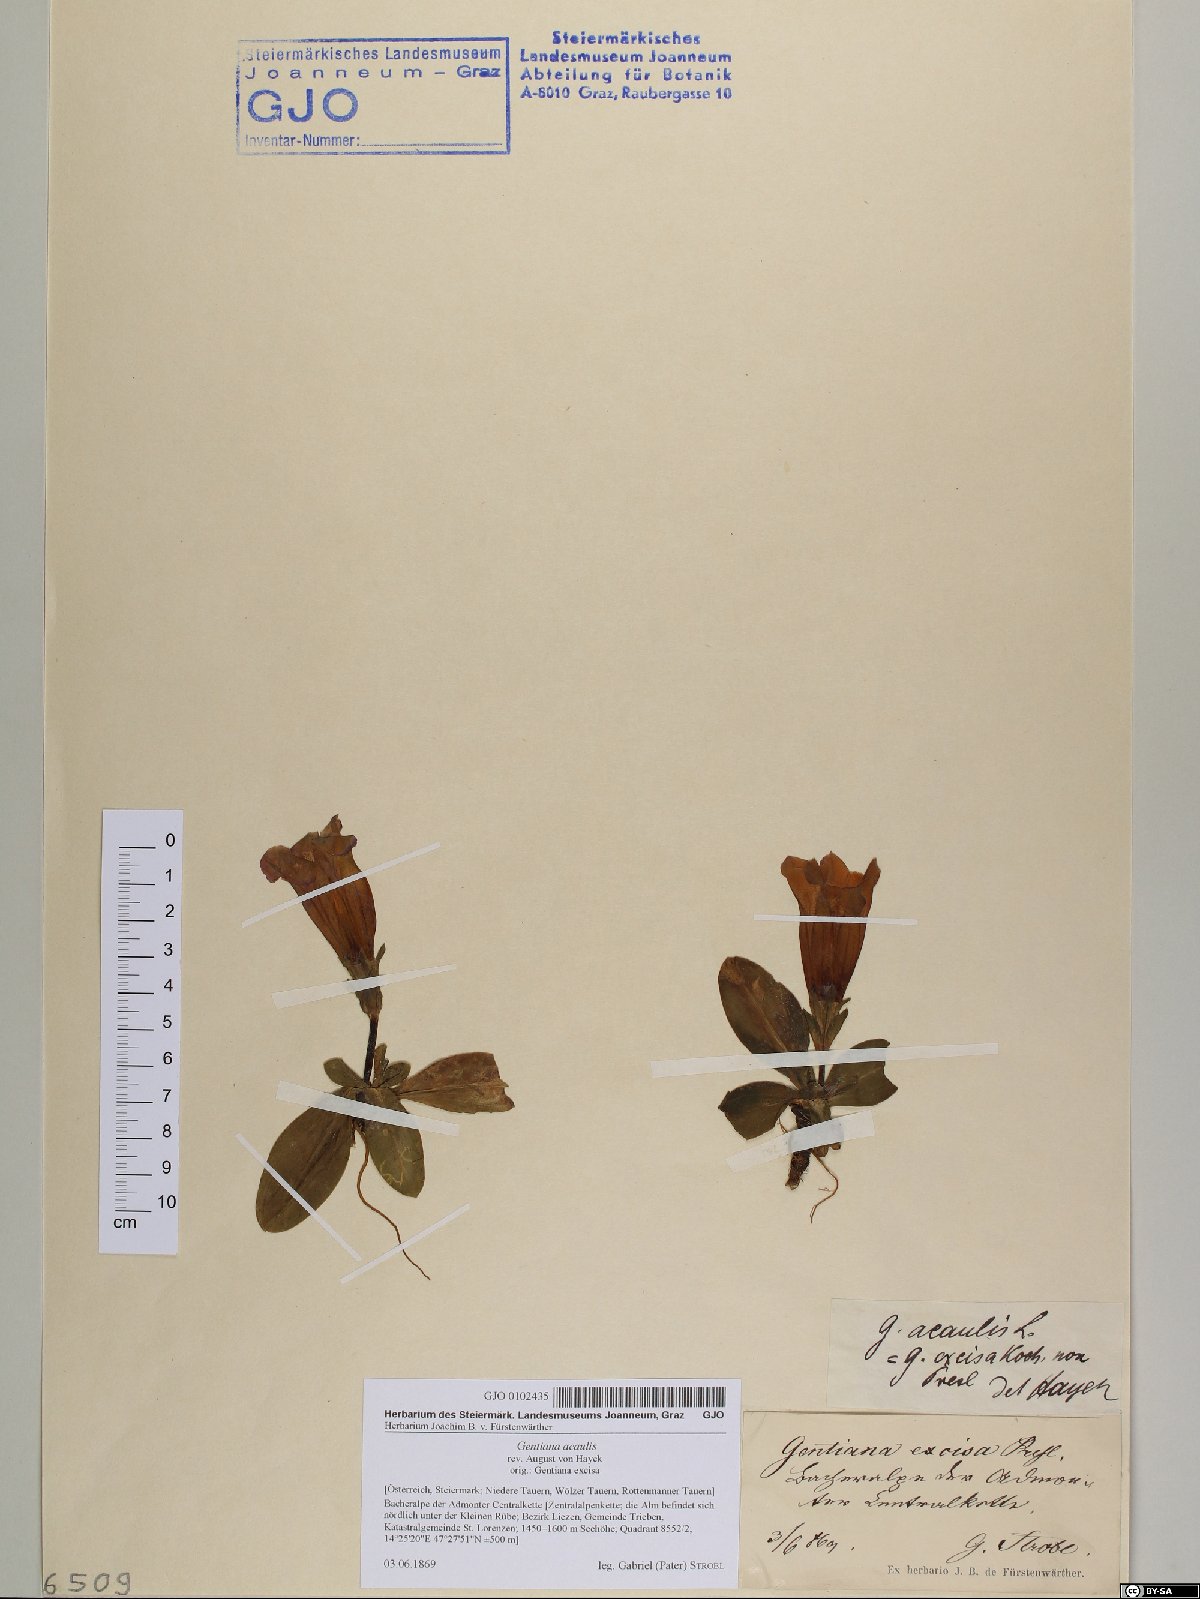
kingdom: Plantae
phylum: Tracheophyta
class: Magnoliopsida
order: Gentianales
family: Gentianaceae
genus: Gentiana
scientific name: Gentiana acaulis
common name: Trumpet gentian
